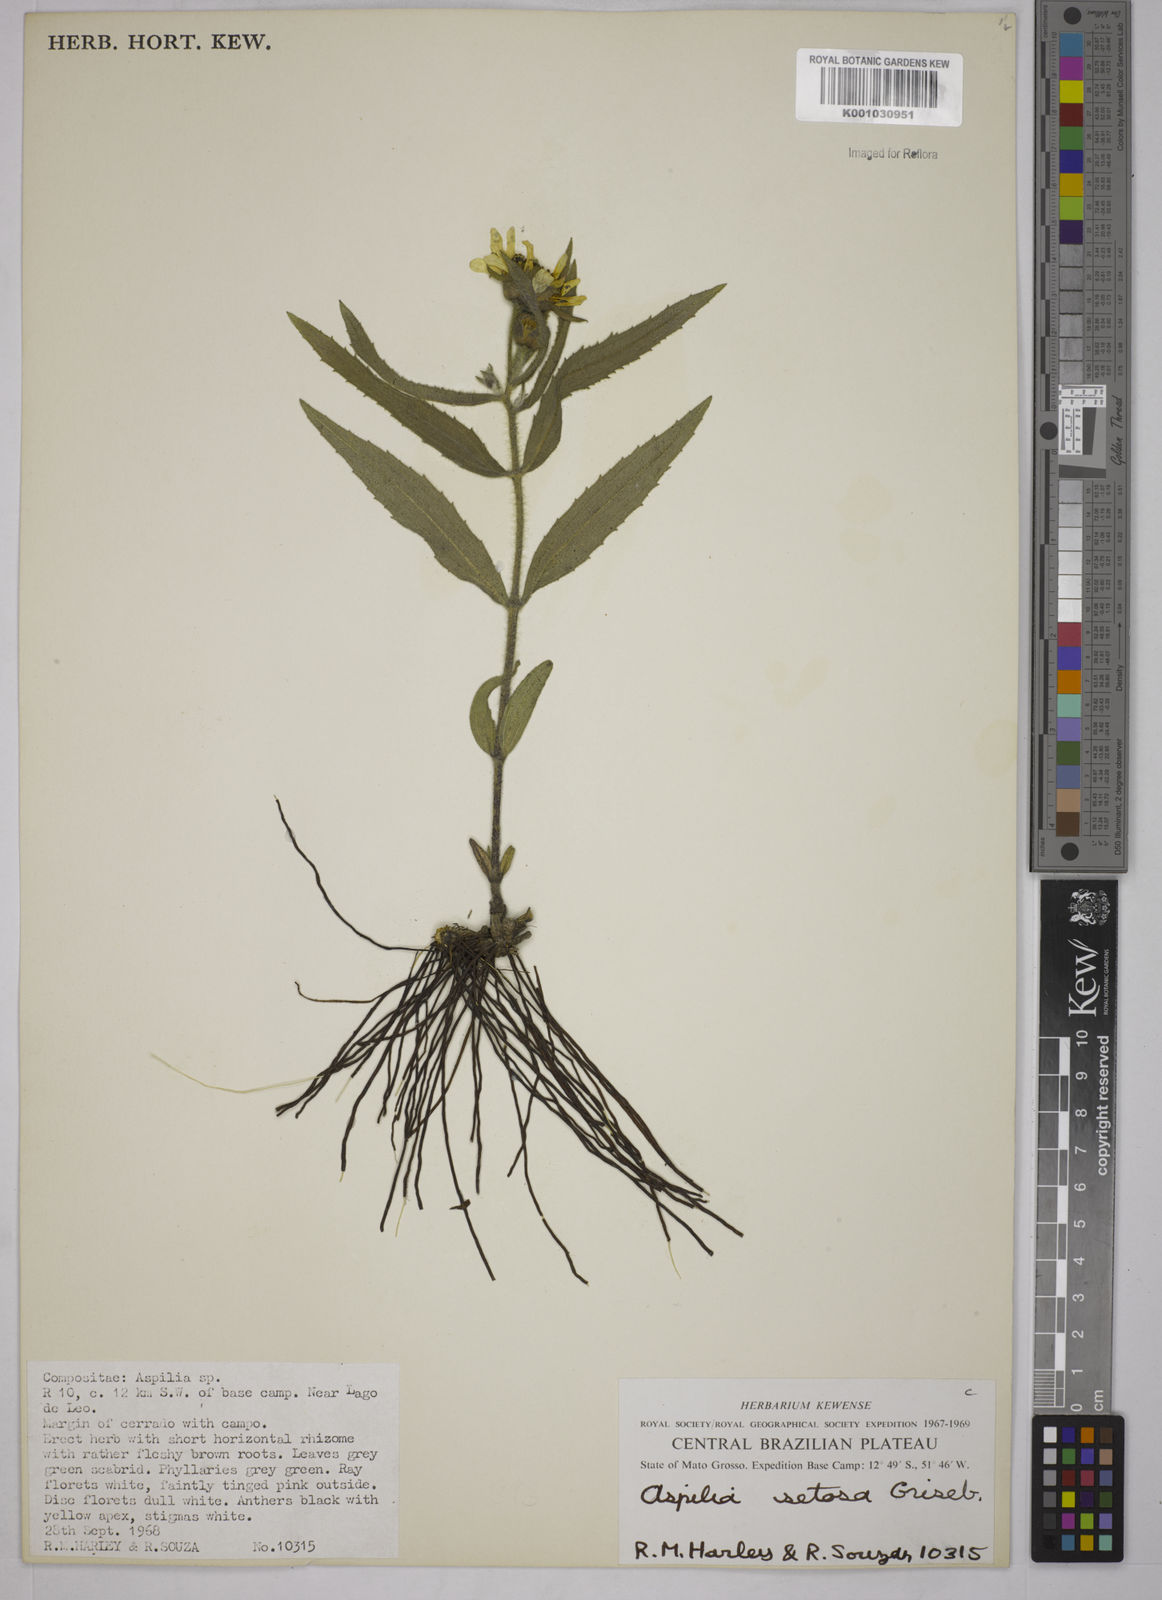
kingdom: Plantae
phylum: Tracheophyta
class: Magnoliopsida
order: Asterales
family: Asteraceae
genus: Wedelia
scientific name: Wedelia montevidensis
